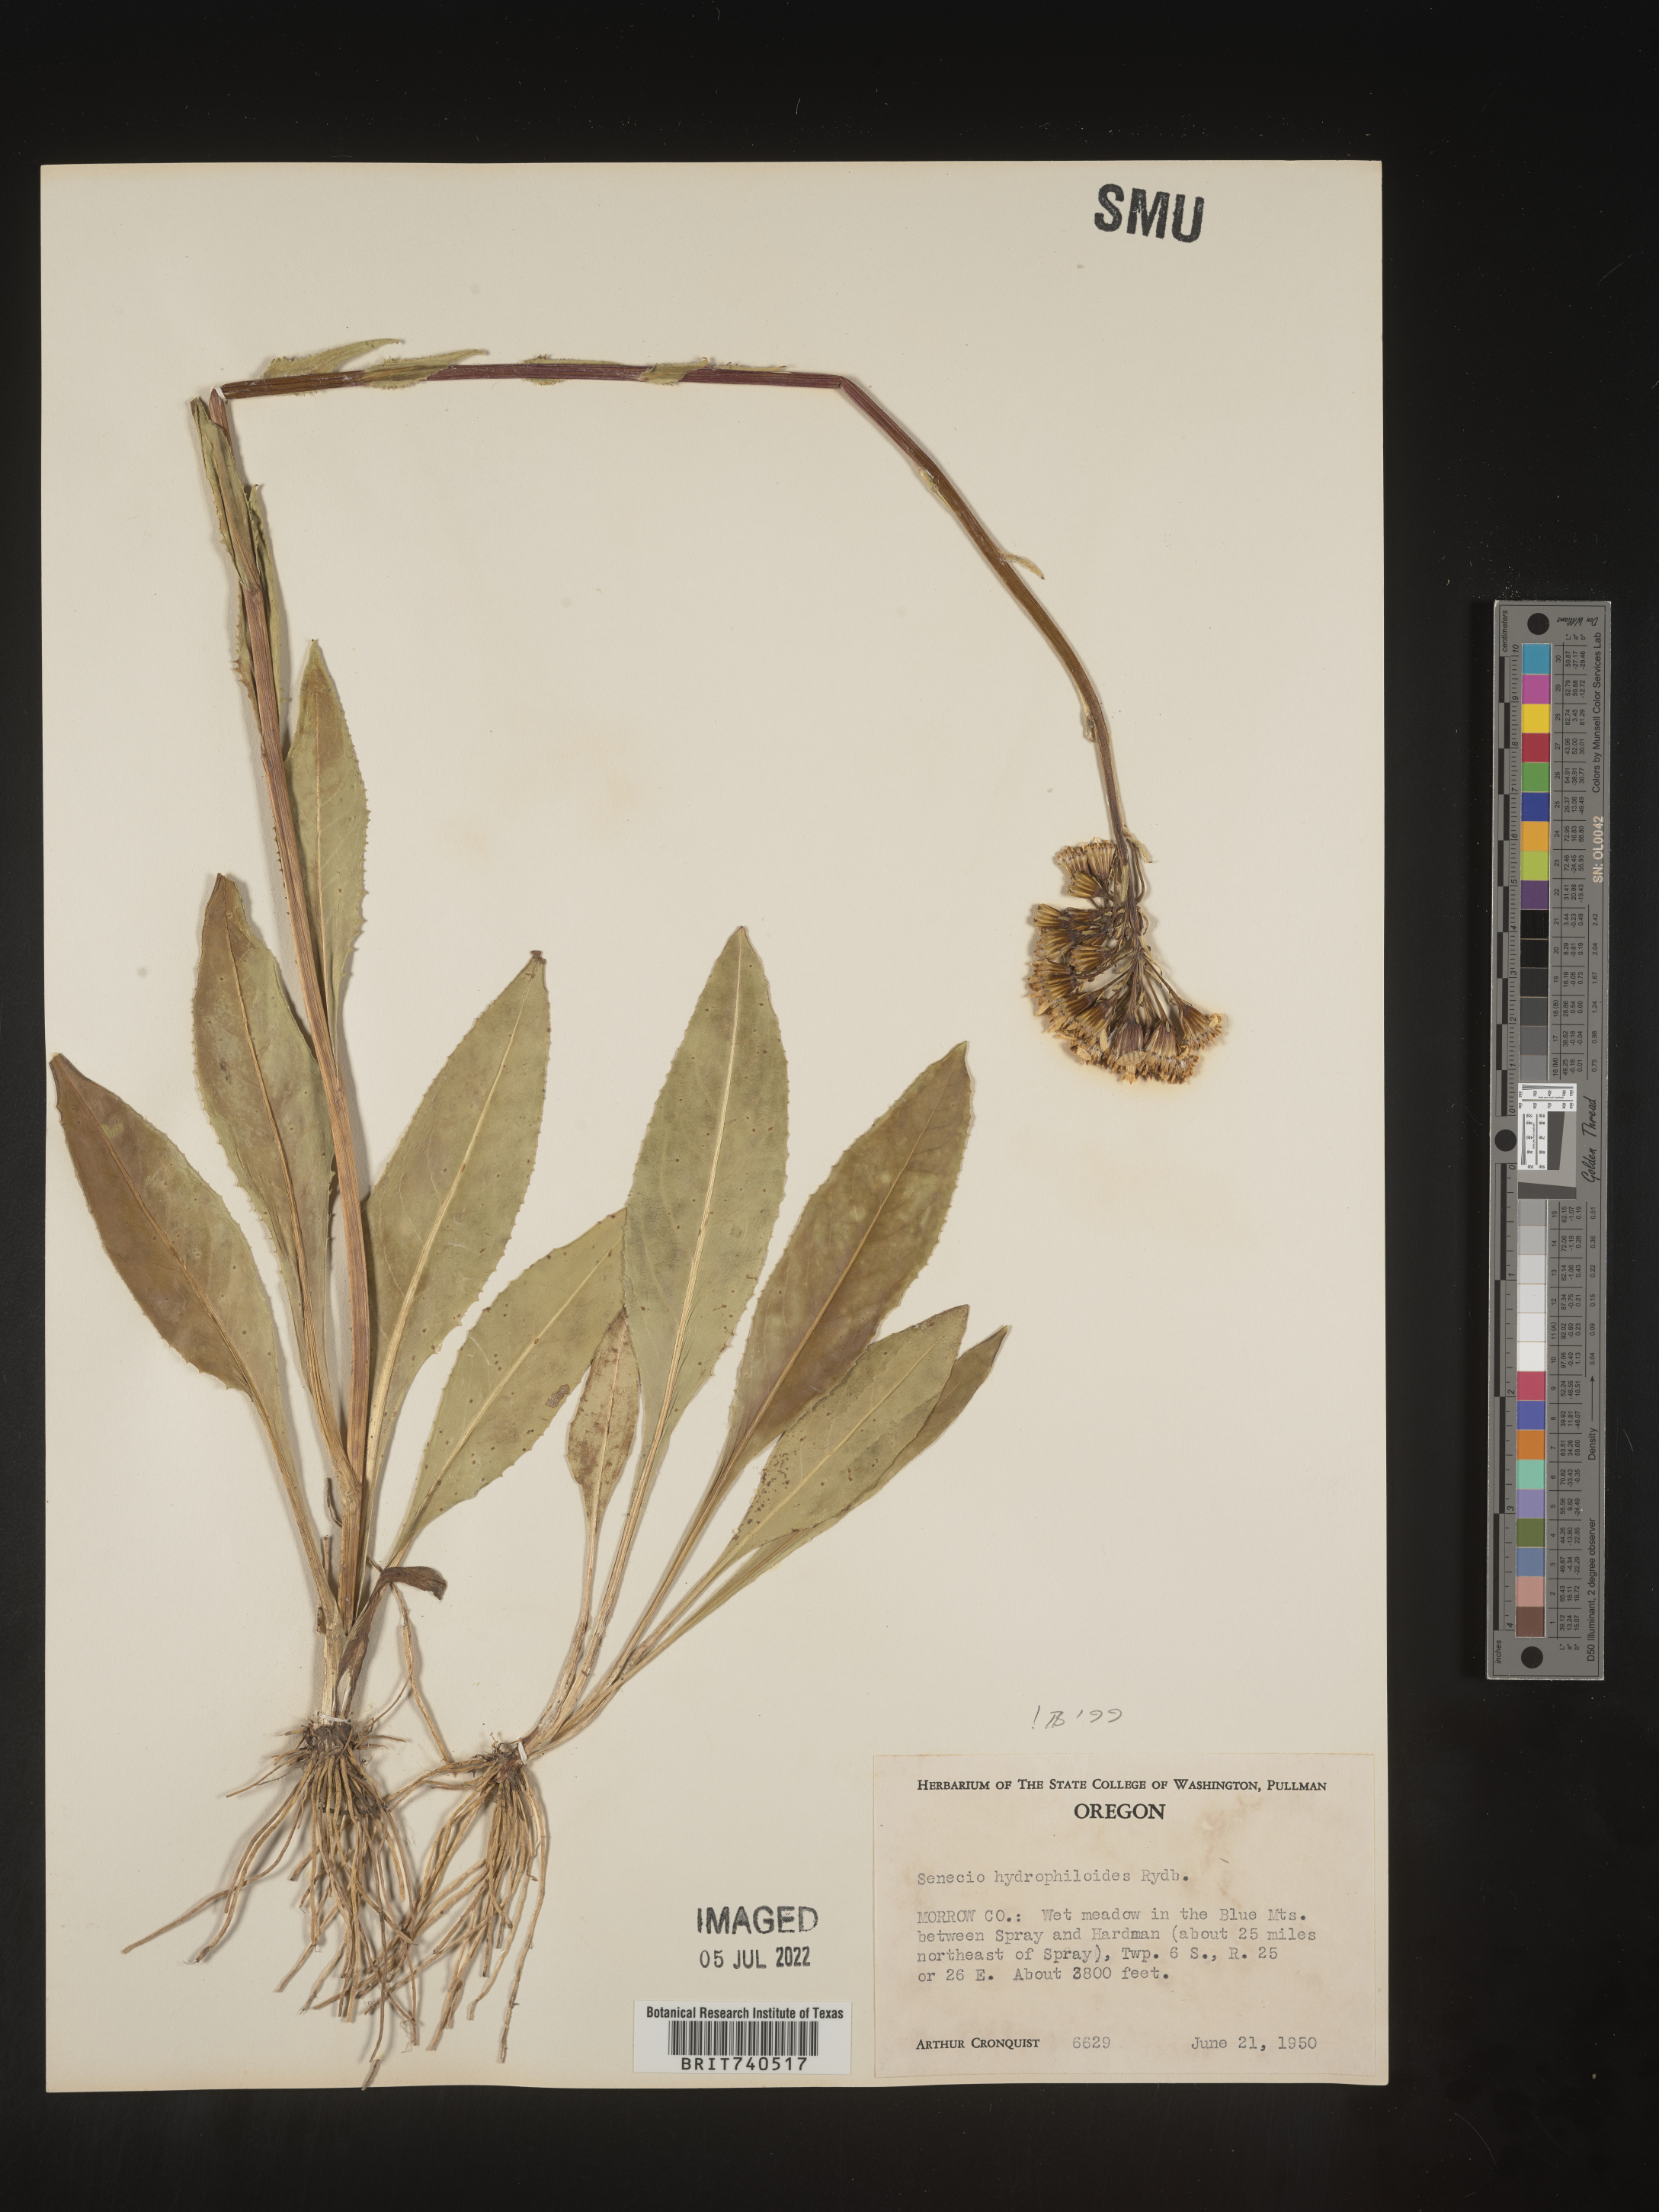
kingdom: Plantae
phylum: Tracheophyta
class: Magnoliopsida
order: Asterales
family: Asteraceae
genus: Senecio
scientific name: Senecio hydrophiloides
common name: Stout meadow groundsel
